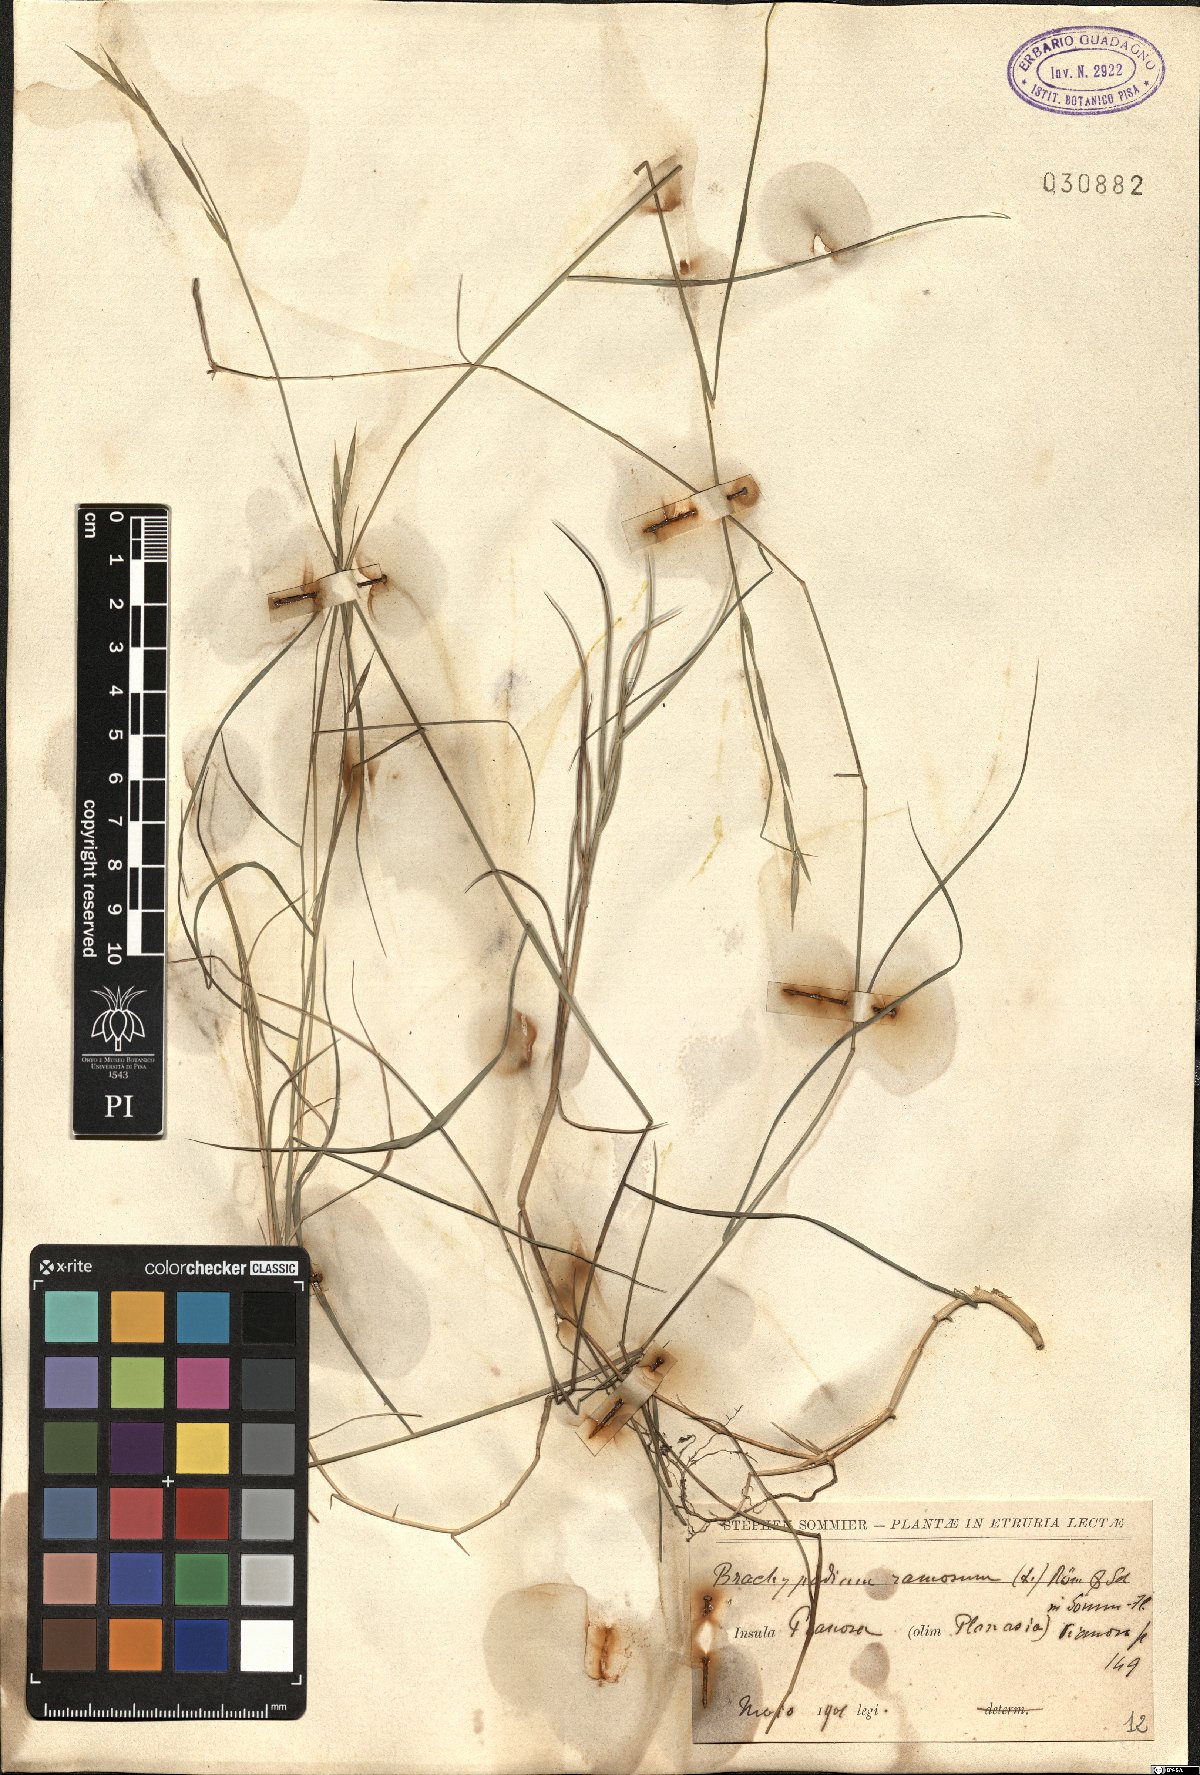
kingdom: Plantae
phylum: Tracheophyta
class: Liliopsida
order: Poales
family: Poaceae
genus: Brachypodium
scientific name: Brachypodium retusum
